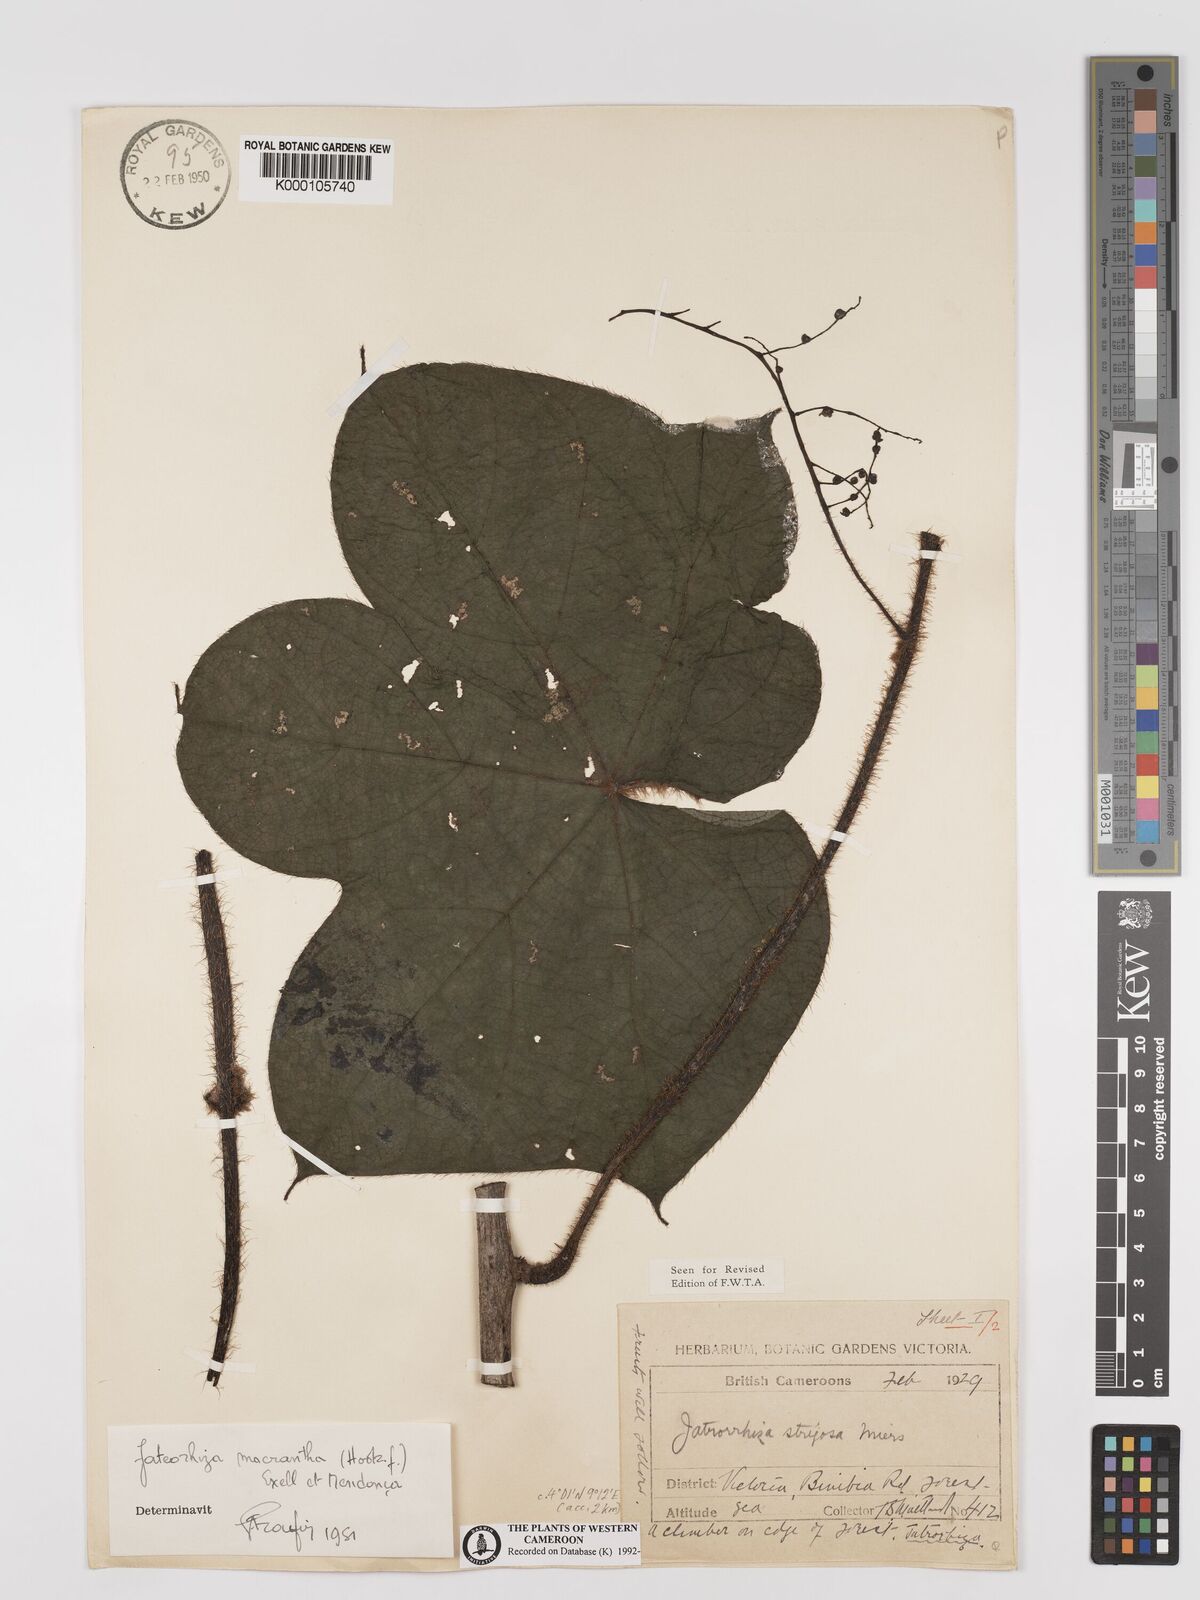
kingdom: Plantae
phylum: Tracheophyta
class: Magnoliopsida
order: Ranunculales
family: Menispermaceae
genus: Jateorhiza
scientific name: Jateorhiza
